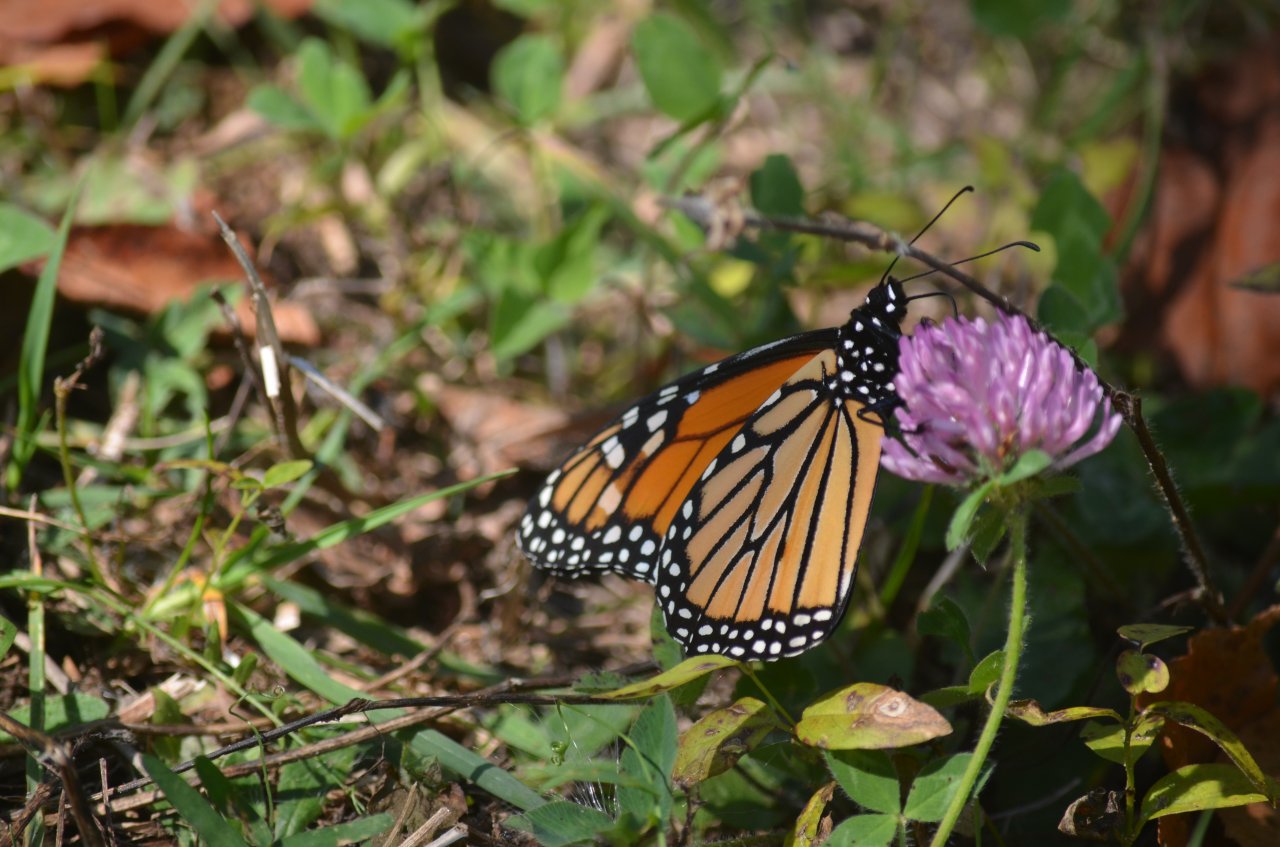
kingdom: Animalia
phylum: Arthropoda
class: Insecta
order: Lepidoptera
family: Nymphalidae
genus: Danaus
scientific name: Danaus plexippus
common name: Monarch
